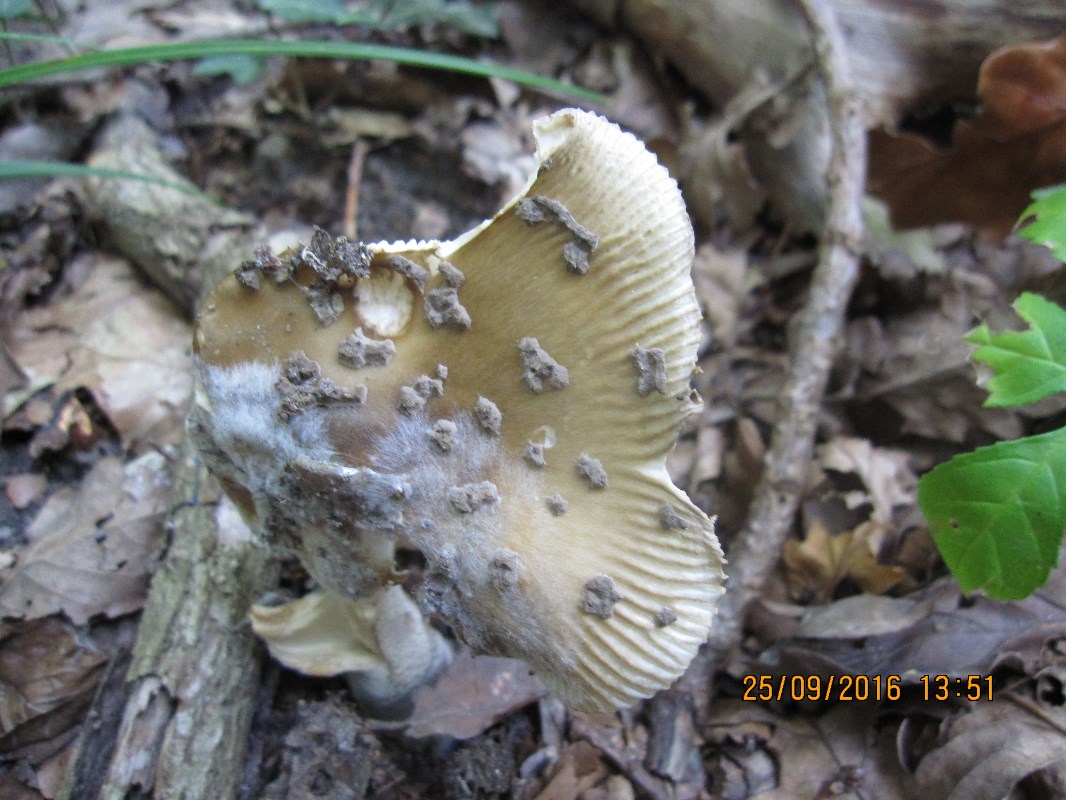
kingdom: Fungi
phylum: Basidiomycota
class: Agaricomycetes
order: Agaricales
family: Amanitaceae
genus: Amanita
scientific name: Amanita ceciliae
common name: stor kam-fluesvamp
